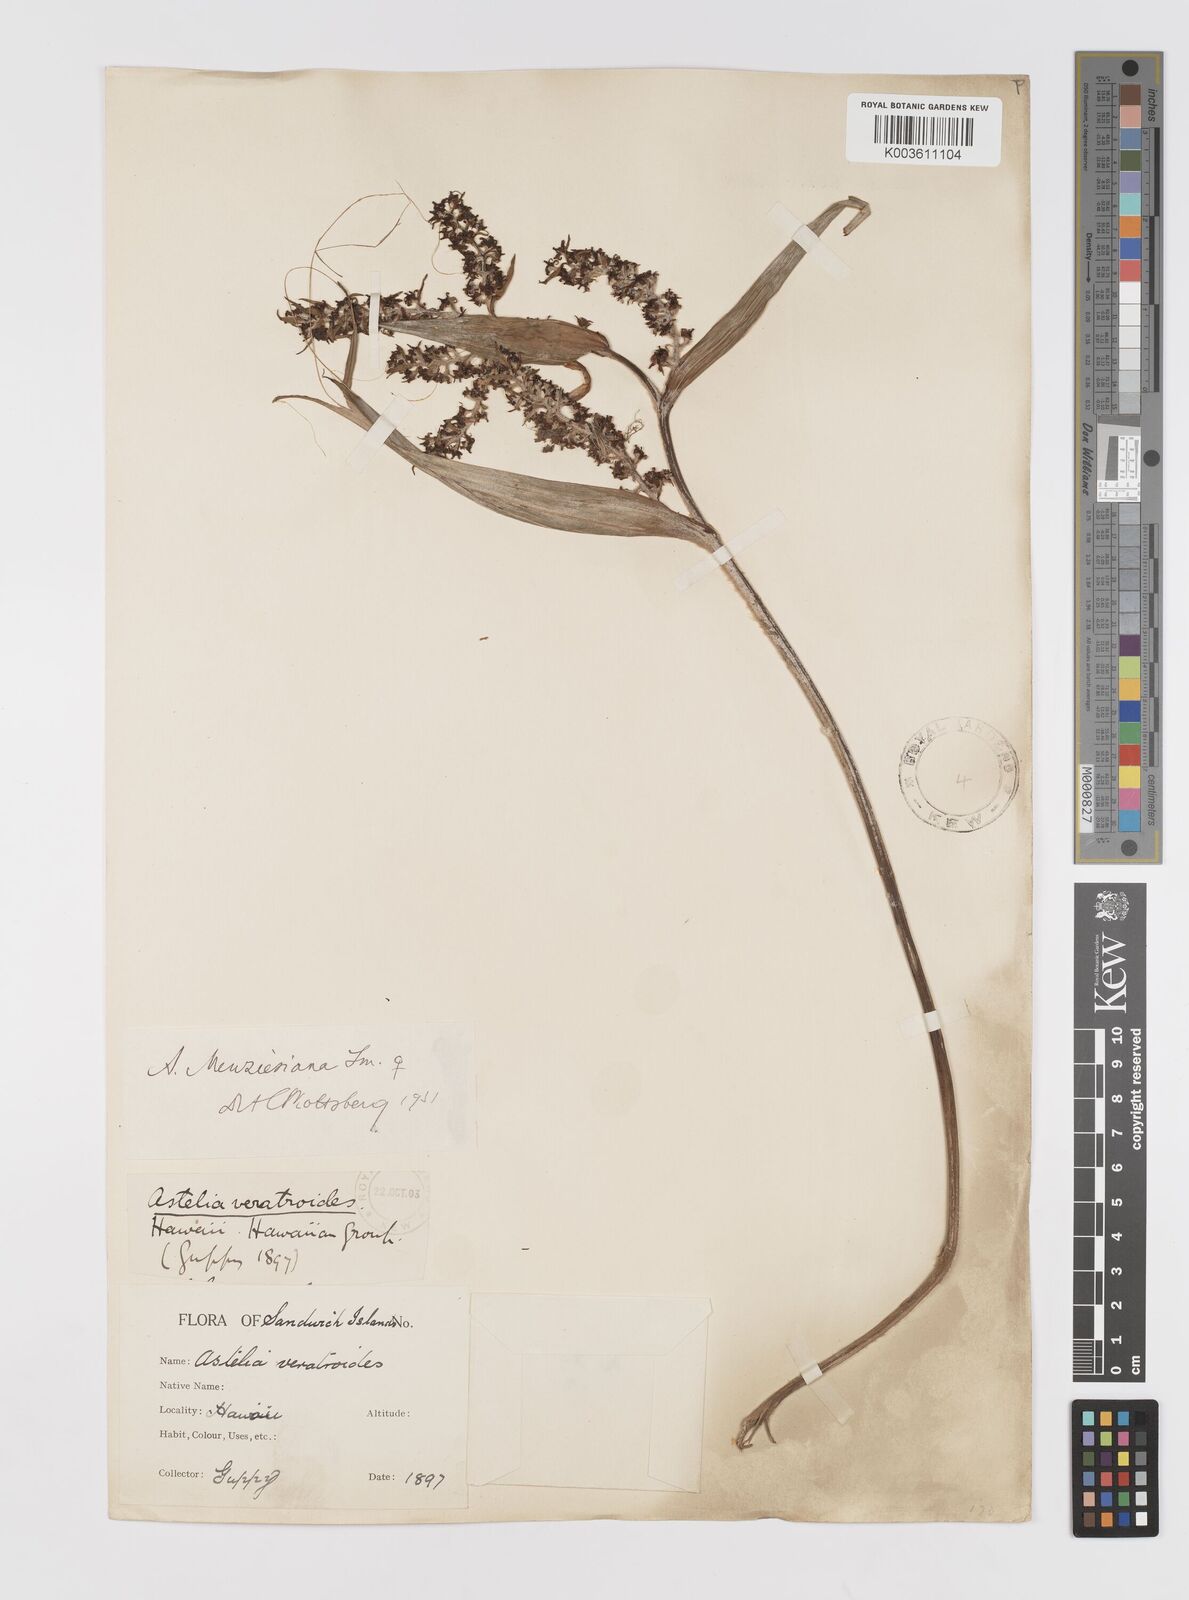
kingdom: Plantae
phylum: Tracheophyta
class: Liliopsida
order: Asparagales
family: Asteliaceae
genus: Astelia
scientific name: Astelia menziesiana
